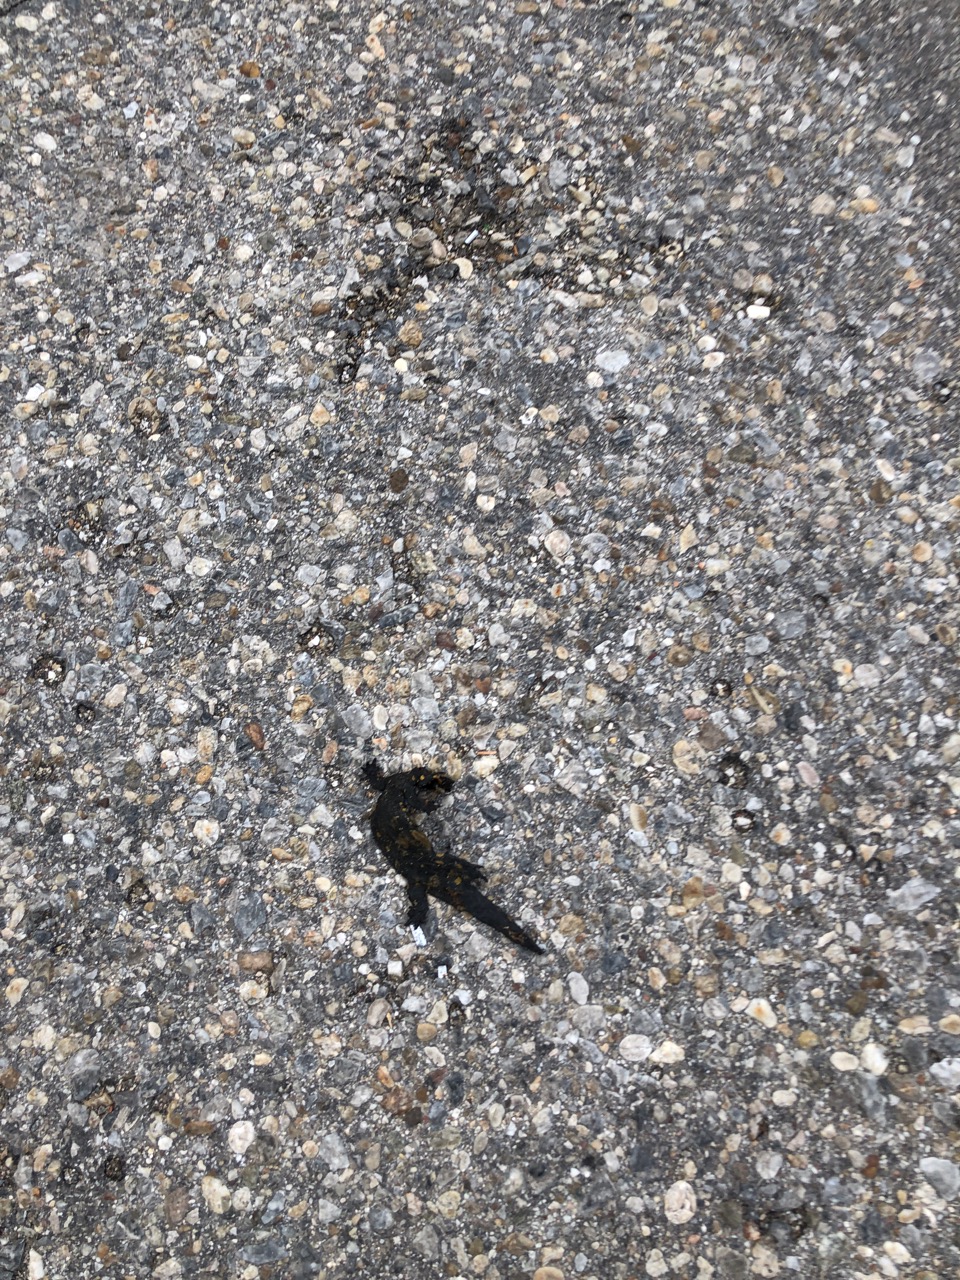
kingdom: Animalia
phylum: Chordata
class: Amphibia
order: Caudata
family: Salamandridae
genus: Salamandra
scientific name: Salamandra salamandra
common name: Fire salamander
